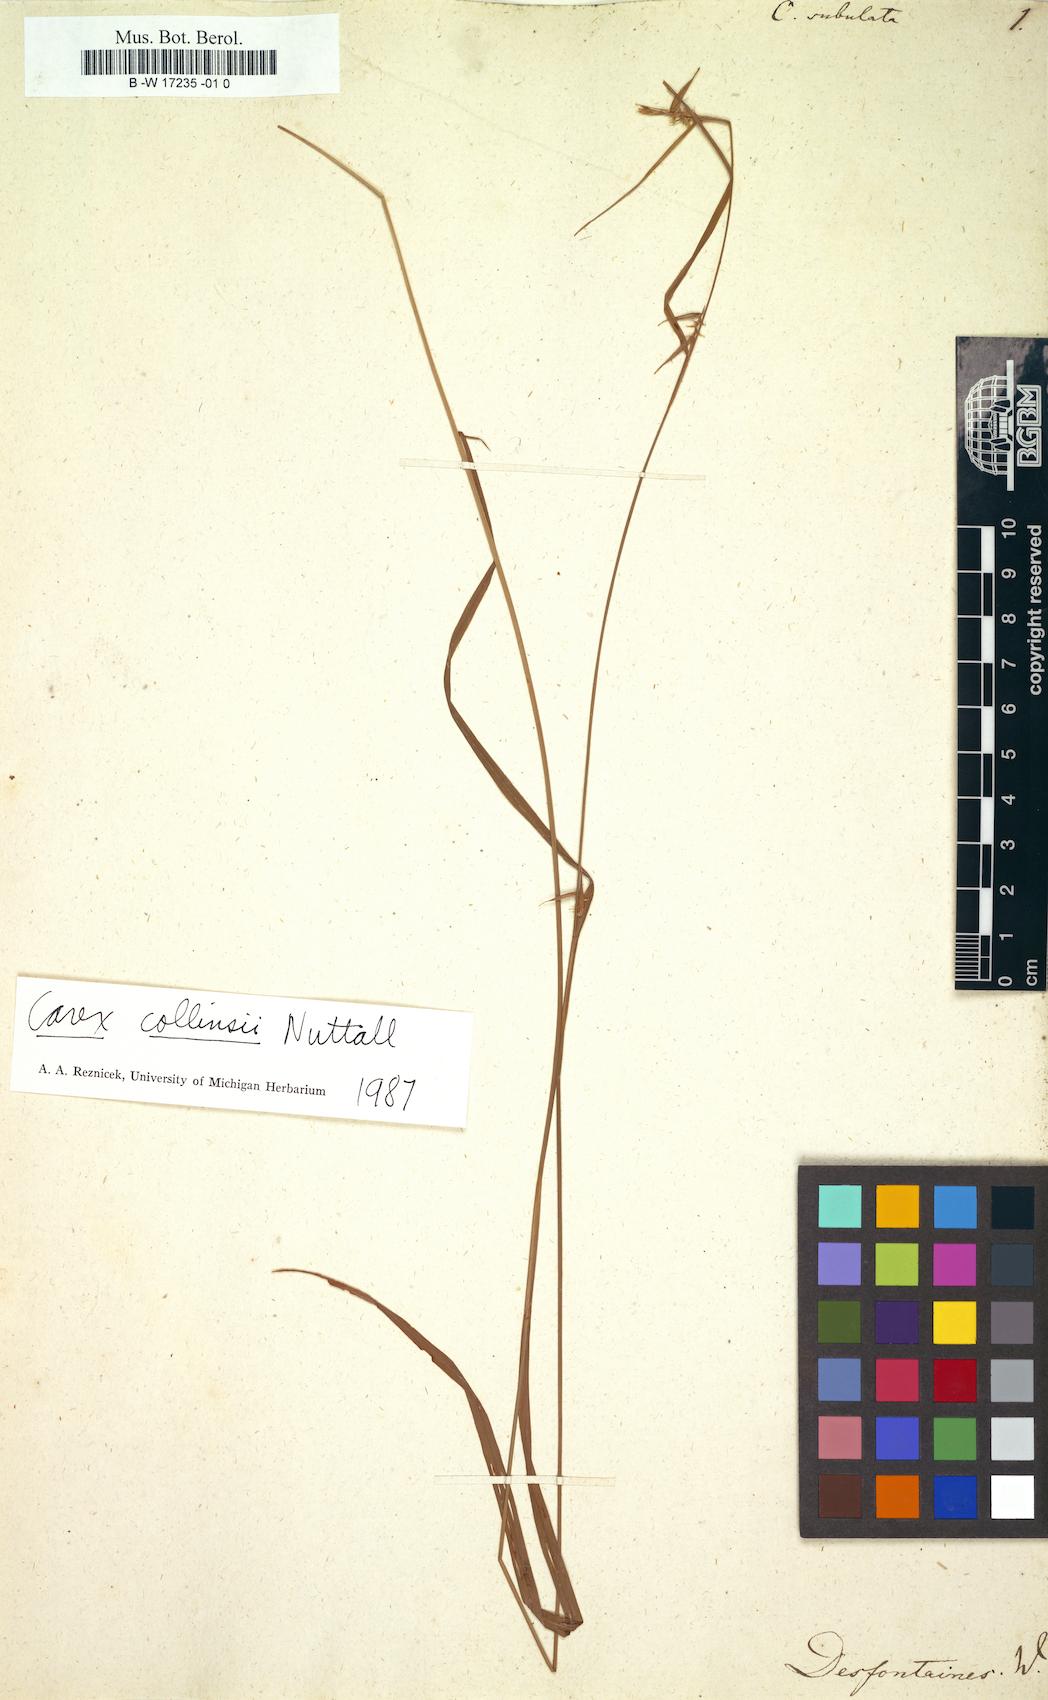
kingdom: Plantae
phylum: Tracheophyta
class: Liliopsida
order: Poales
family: Cyperaceae
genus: Scleria
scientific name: Scleria lithosperma
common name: Florida keys nut-rush
